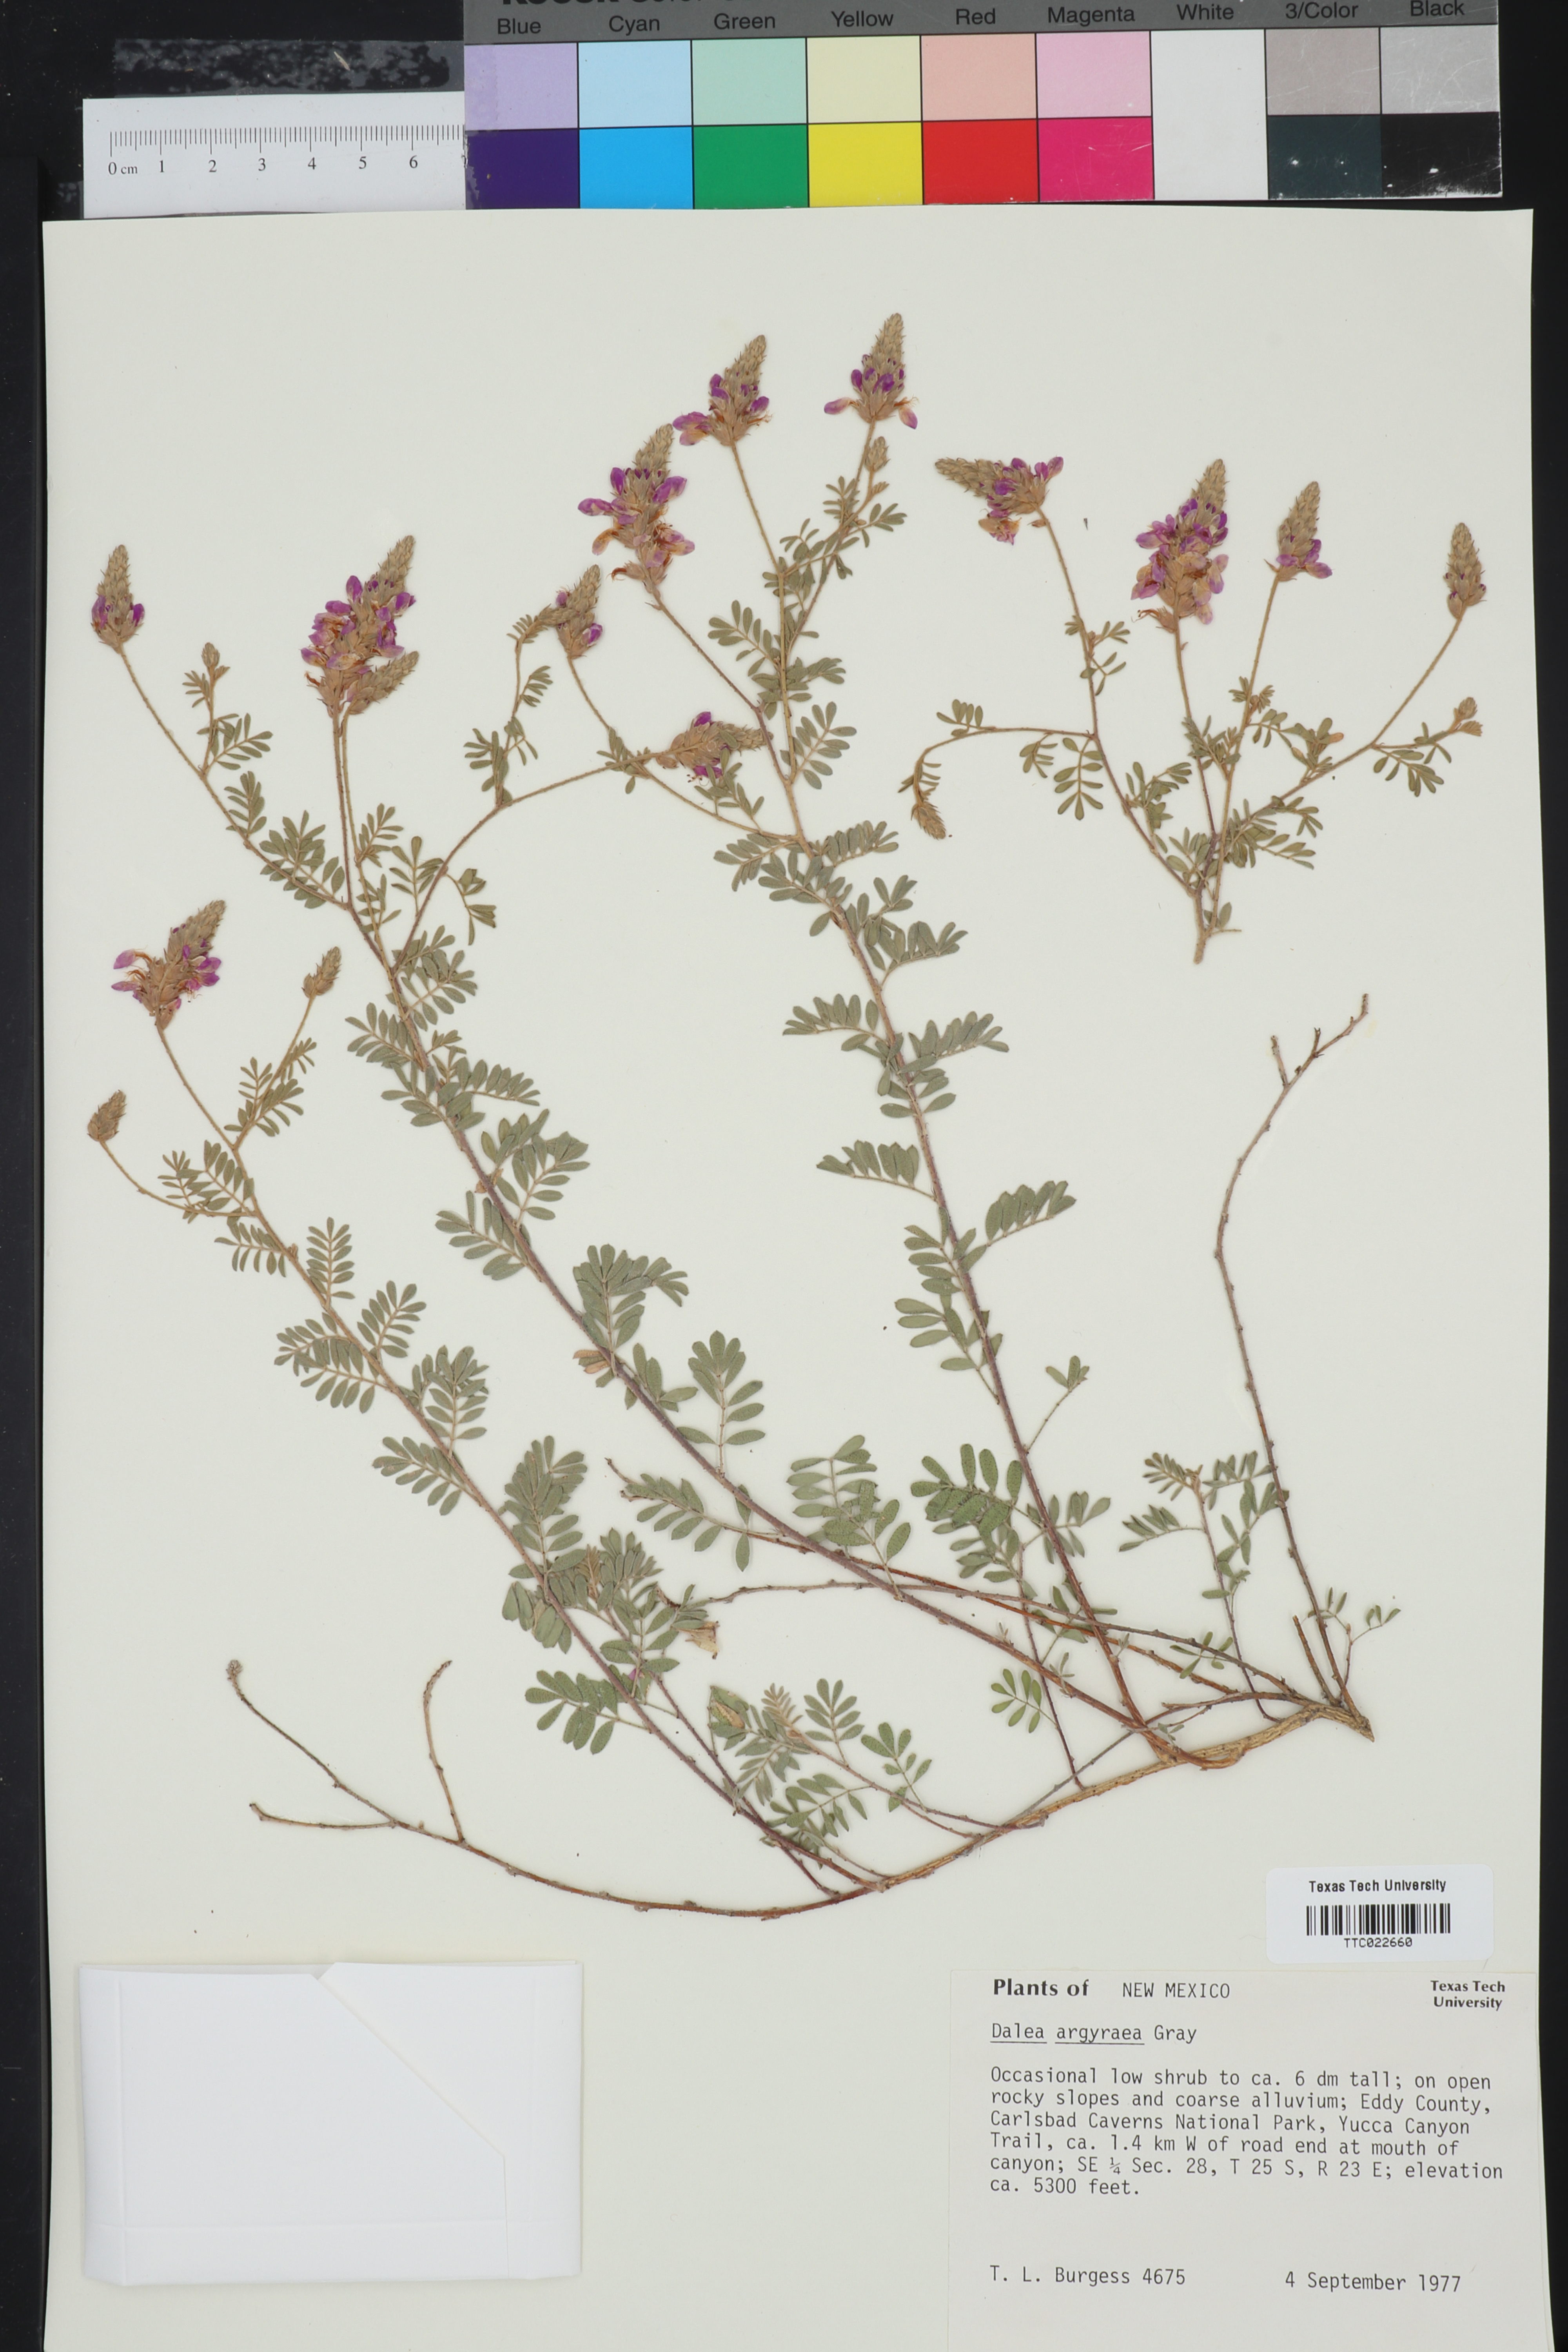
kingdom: Plantae
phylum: Tracheophyta
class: Magnoliopsida
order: Fabales
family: Fabaceae
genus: Dalea
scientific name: Dalea bicolor
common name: Silver prairie-clover
